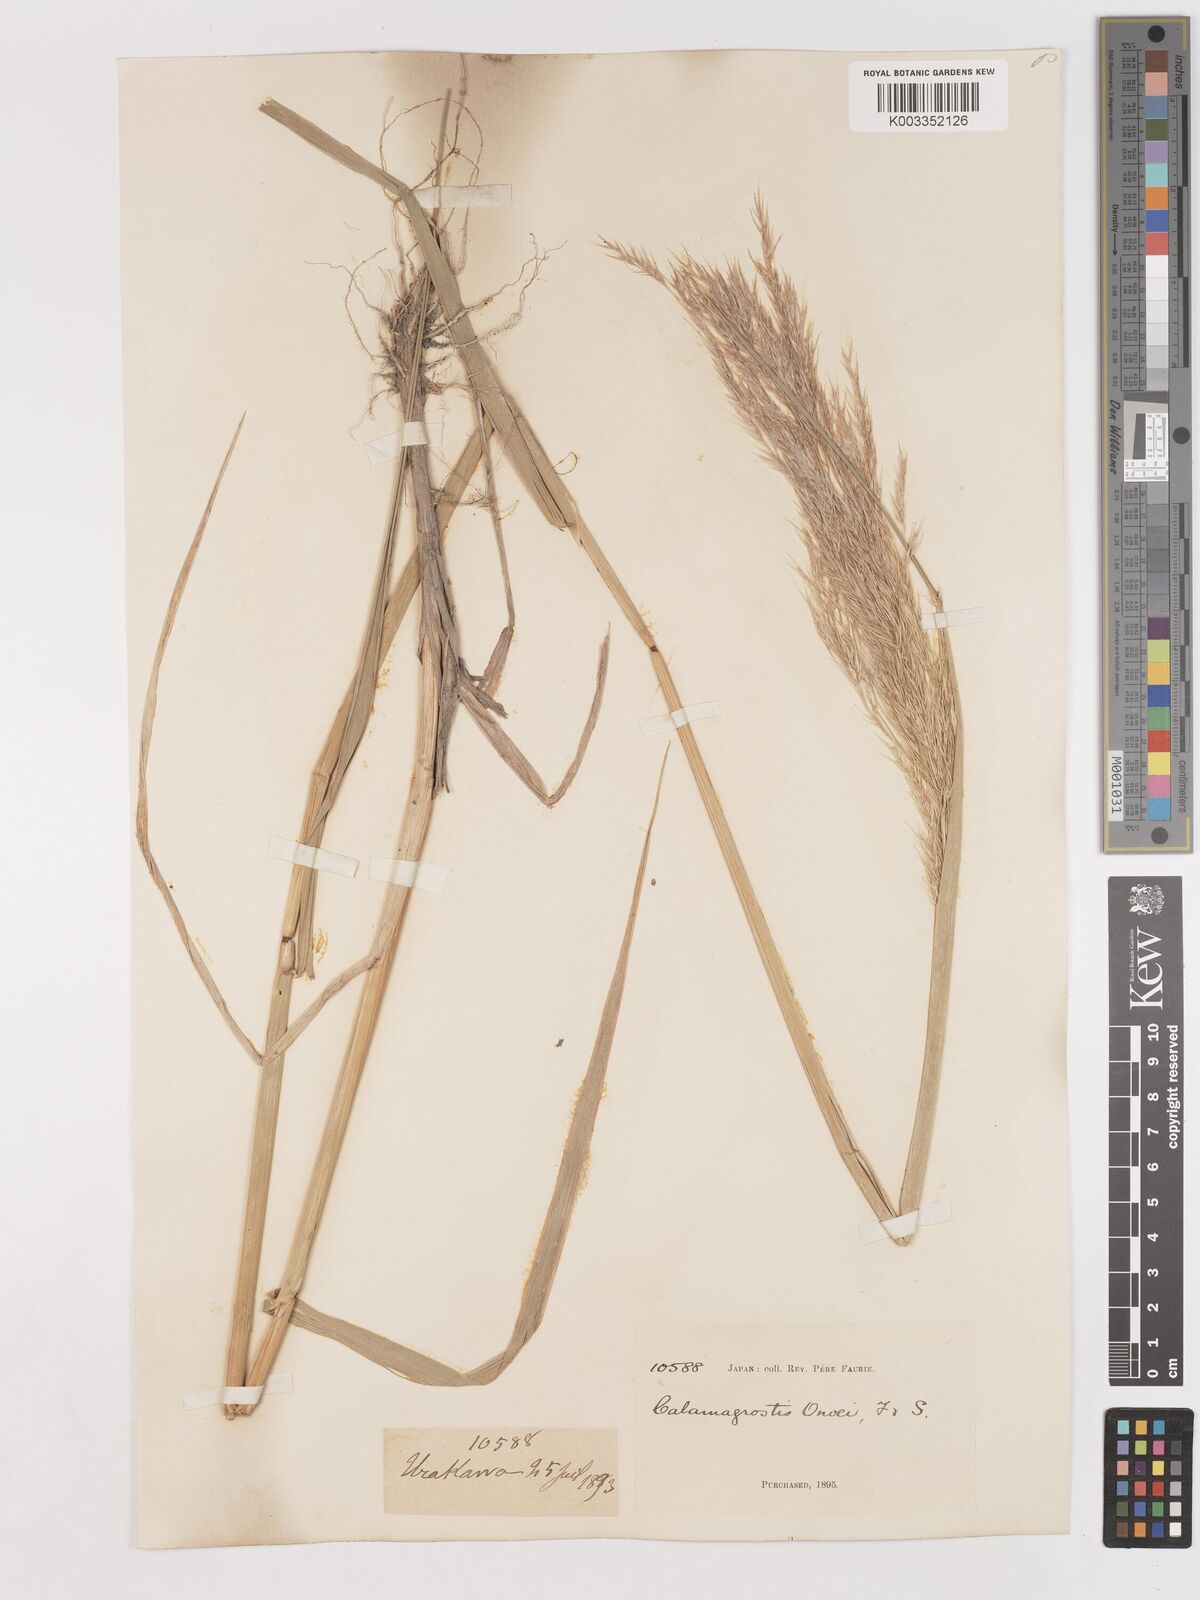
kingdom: Plantae
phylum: Tracheophyta
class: Liliopsida
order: Poales
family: Poaceae
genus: Calamagrostis
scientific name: Calamagrostis pseudophragmites
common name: Coastal small-reed
